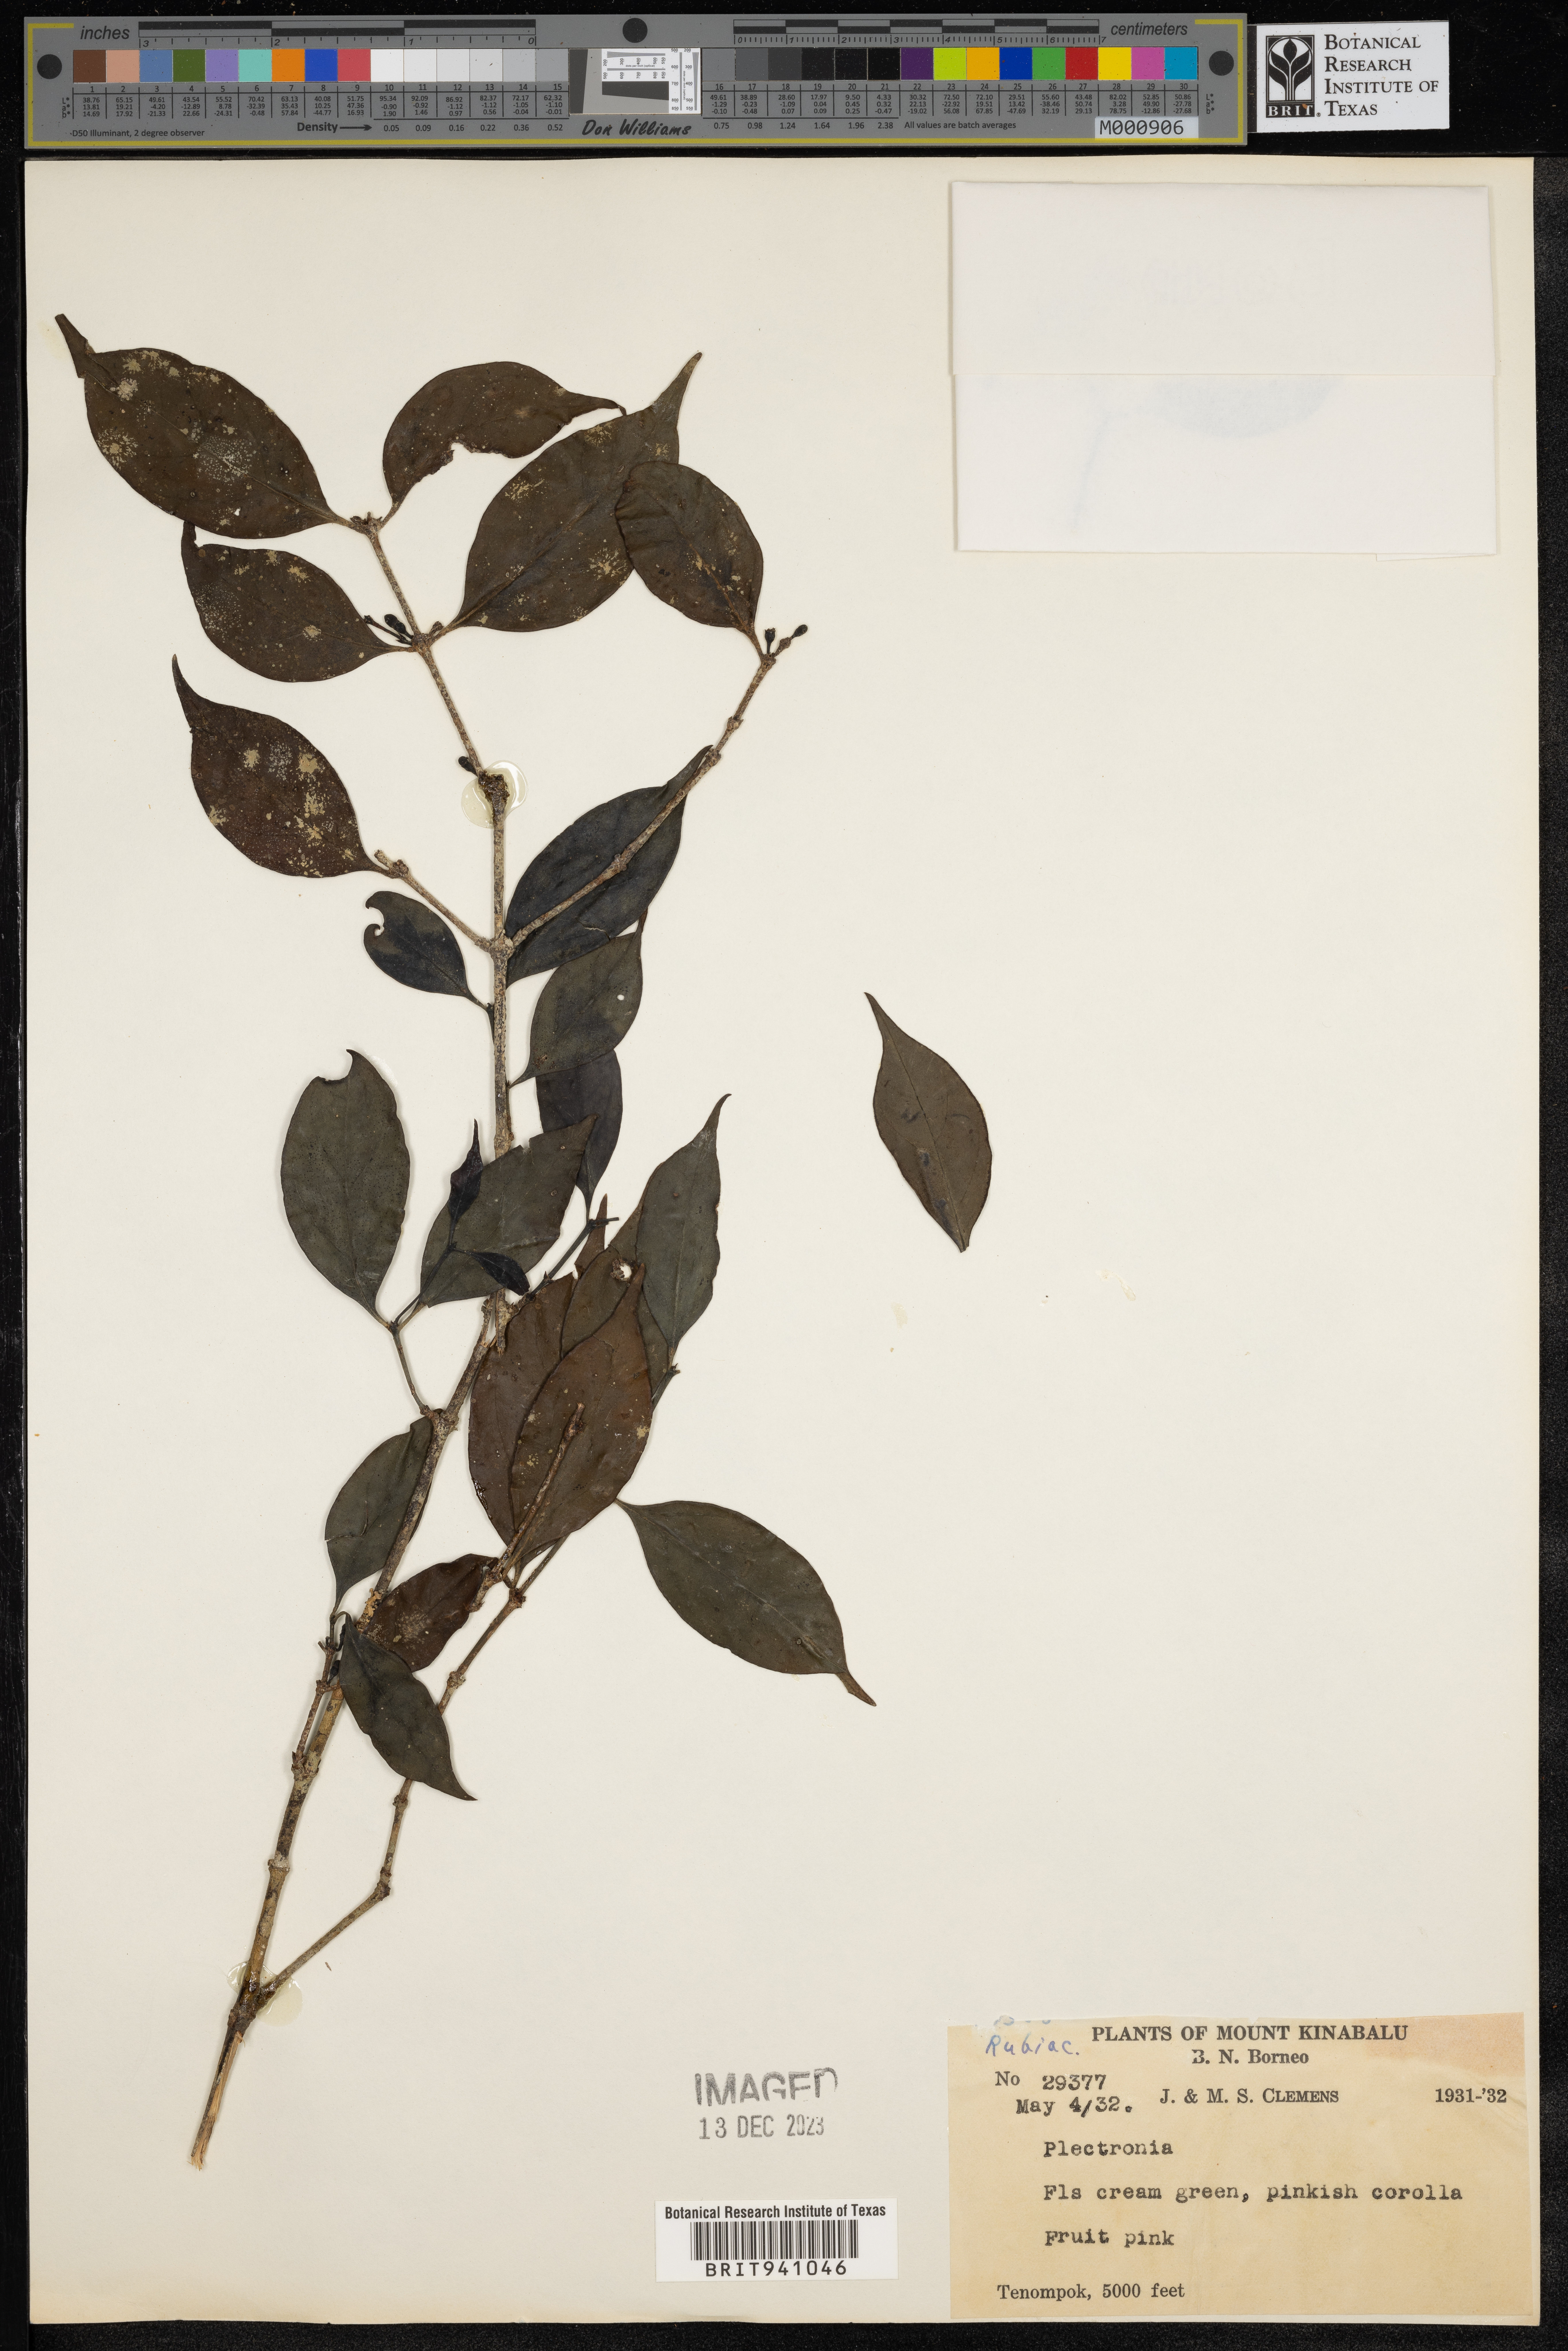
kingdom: Plantae
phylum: Tracheophyta
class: Magnoliopsida
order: Myrtales
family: Lythraceae
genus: Plectronia
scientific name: Plectronia
